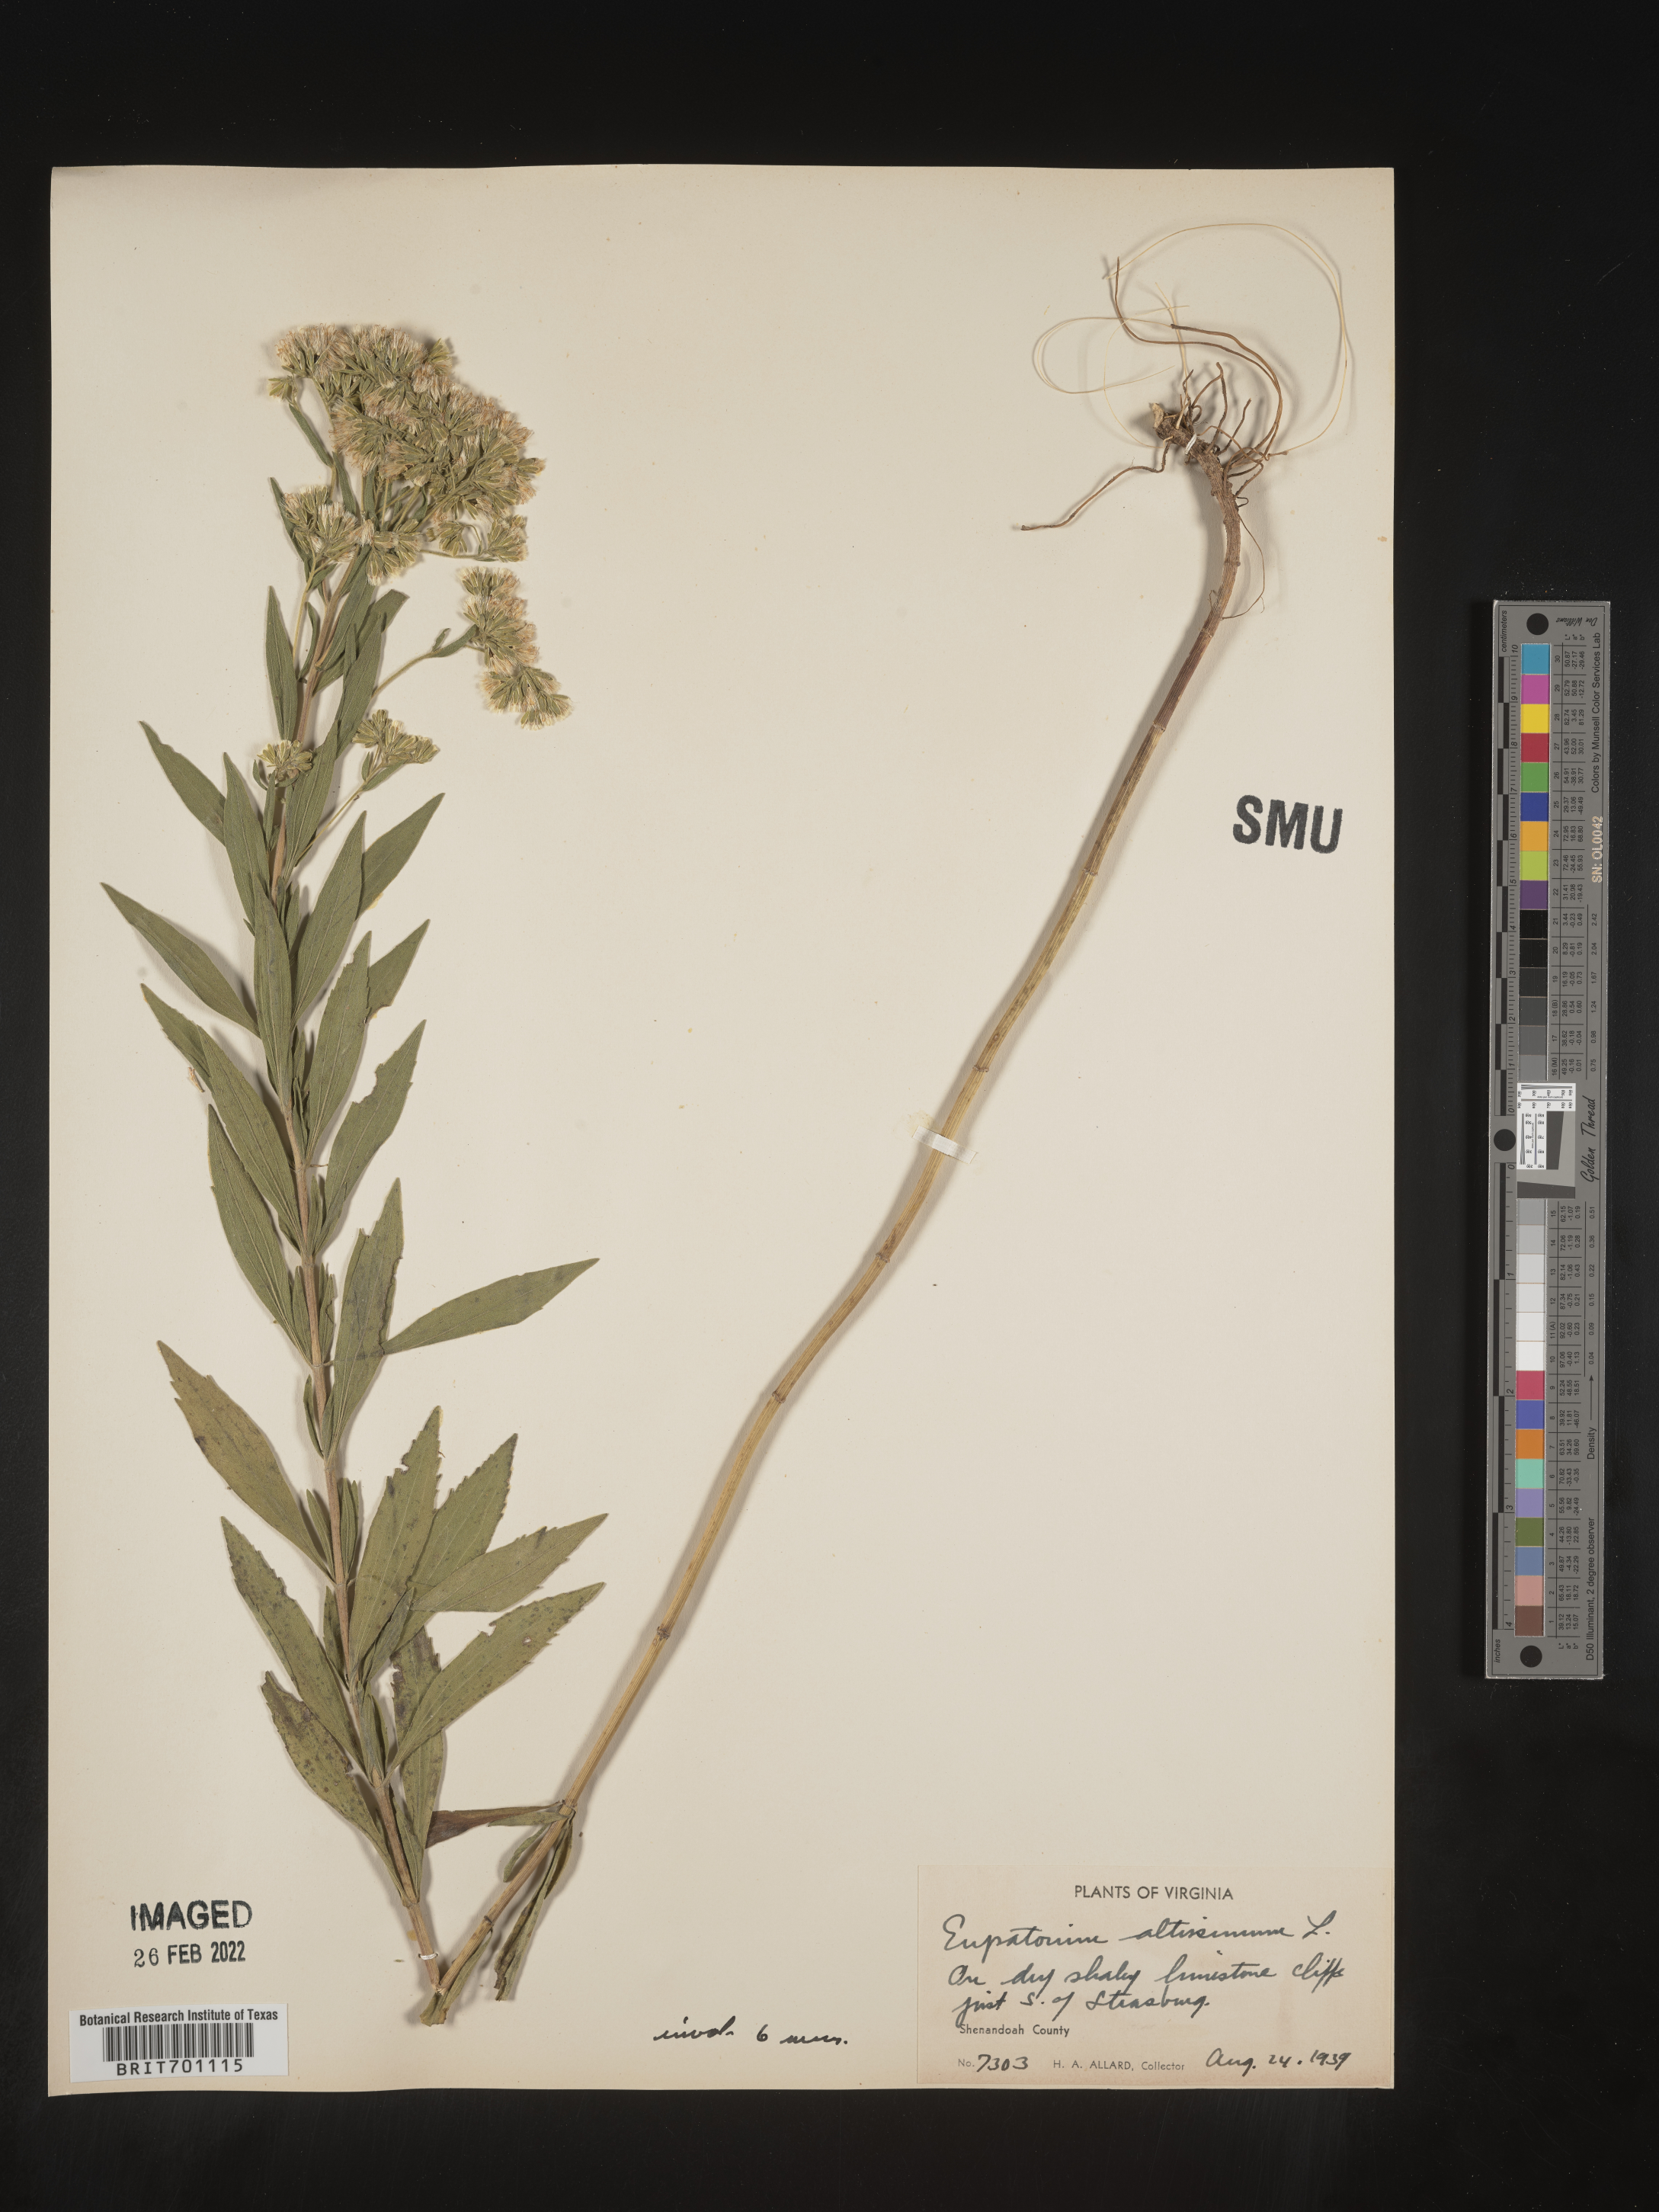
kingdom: Plantae
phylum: Tracheophyta
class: Magnoliopsida
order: Asterales
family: Asteraceae
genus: Eupatorium
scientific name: Eupatorium altissimum
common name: Tall thoroughwort
